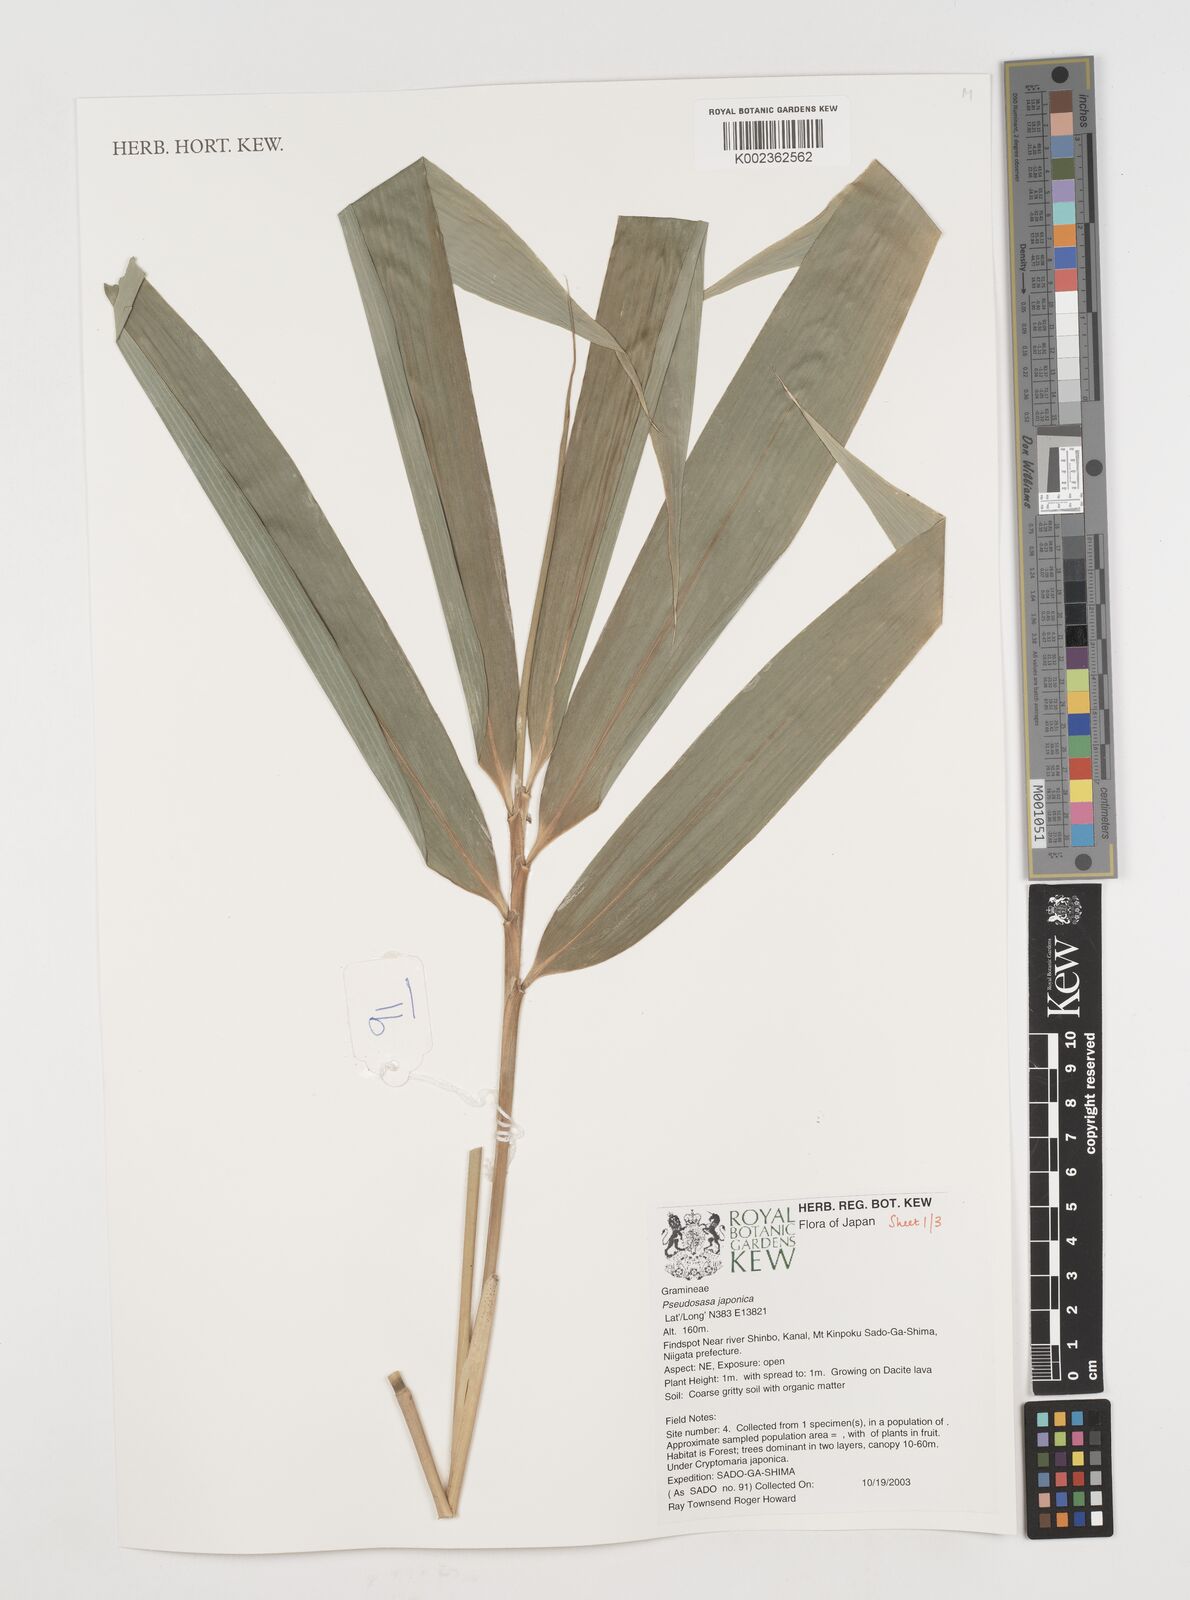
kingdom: Plantae
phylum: Tracheophyta
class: Liliopsida
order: Poales
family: Poaceae
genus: Pseudosasa
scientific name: Pseudosasa japonica
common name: Arrow bamboo
